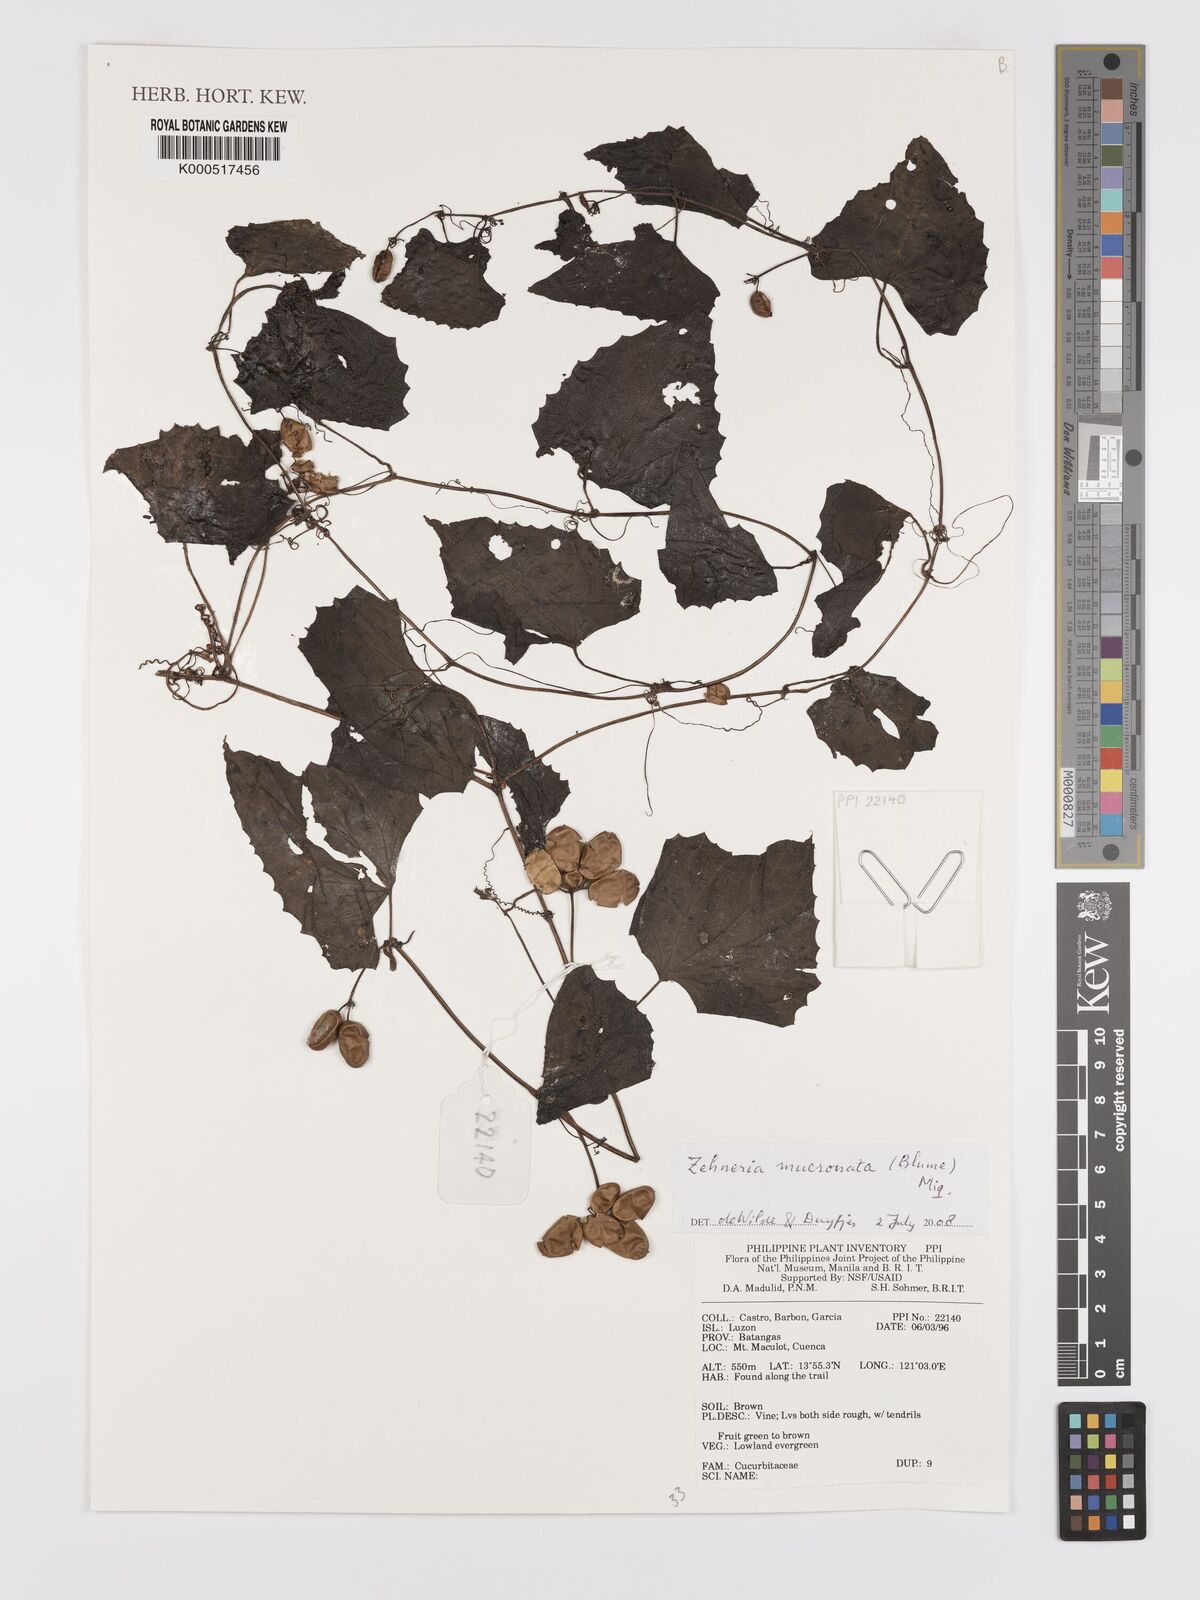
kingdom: Plantae
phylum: Tracheophyta
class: Magnoliopsida
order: Cucurbitales
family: Cucurbitaceae
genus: Zehneria
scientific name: Zehneria mucronata
